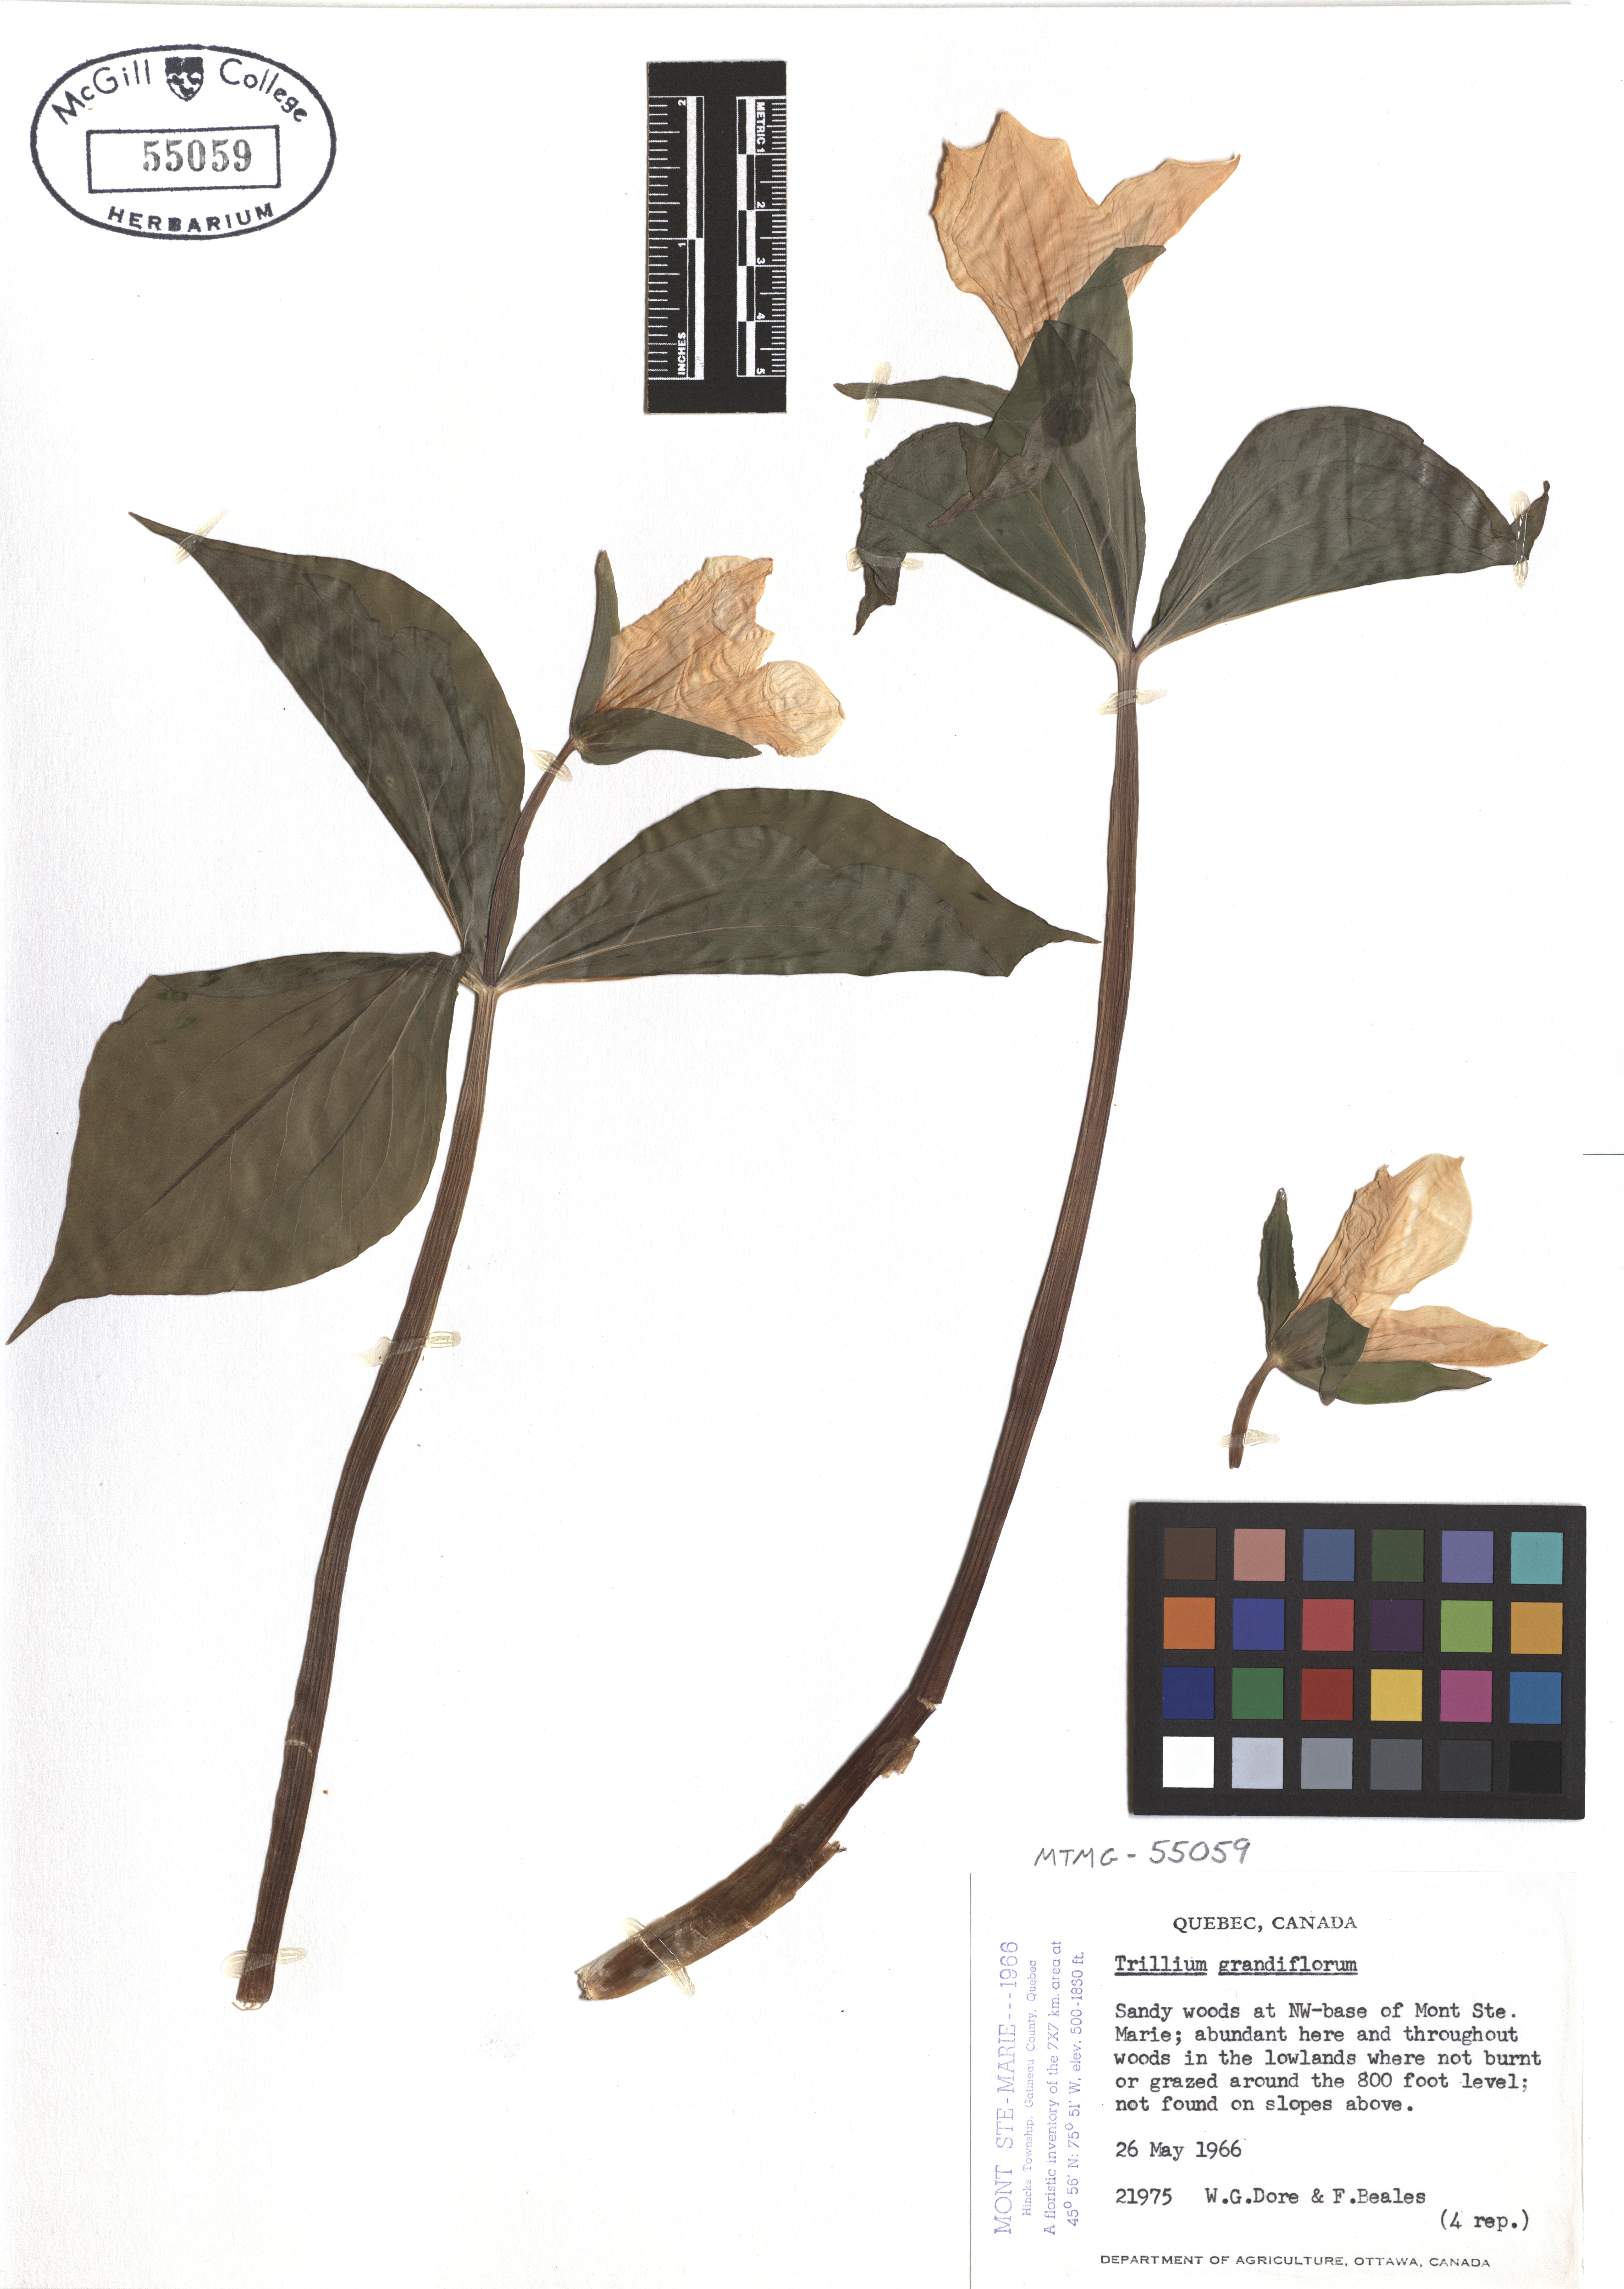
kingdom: Plantae
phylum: Tracheophyta
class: Liliopsida
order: Liliales
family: Melanthiaceae
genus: Trillium
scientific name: Trillium grandiflorum
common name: Great white trillium
